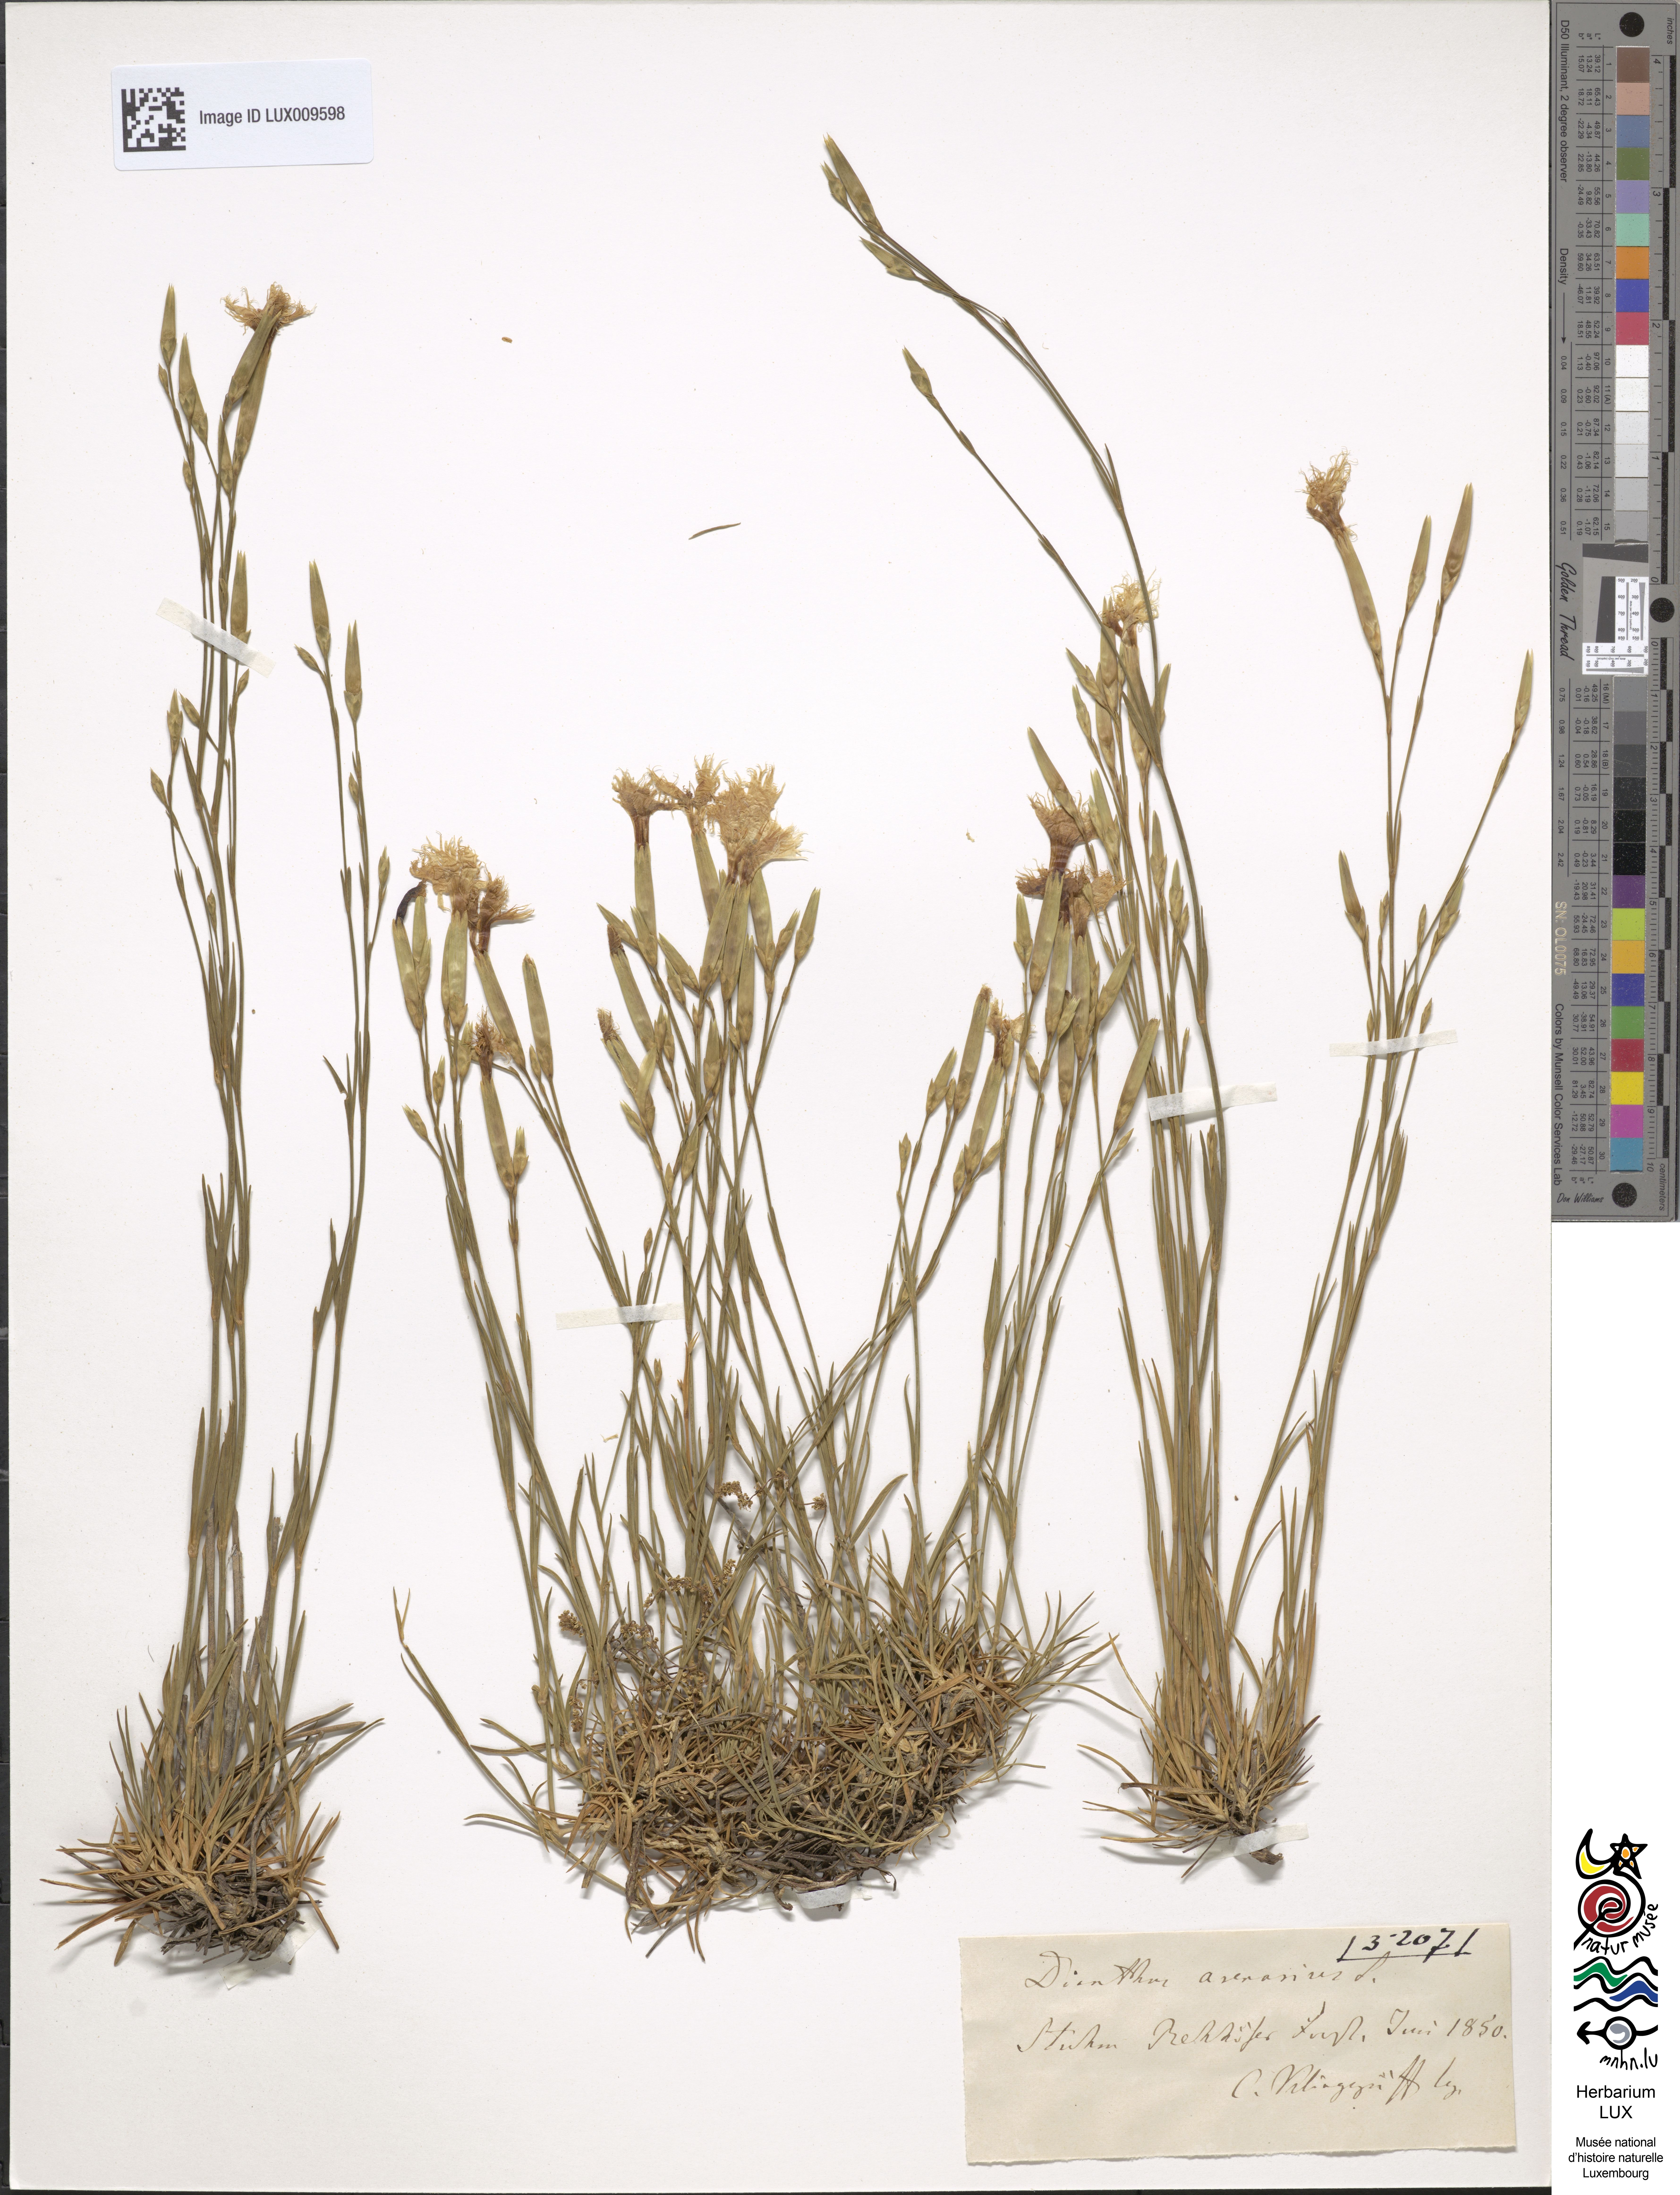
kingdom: Plantae
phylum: Tracheophyta
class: Magnoliopsida
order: Caryophyllales
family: Caryophyllaceae
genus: Dianthus
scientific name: Dianthus arenarius
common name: Stone pink
